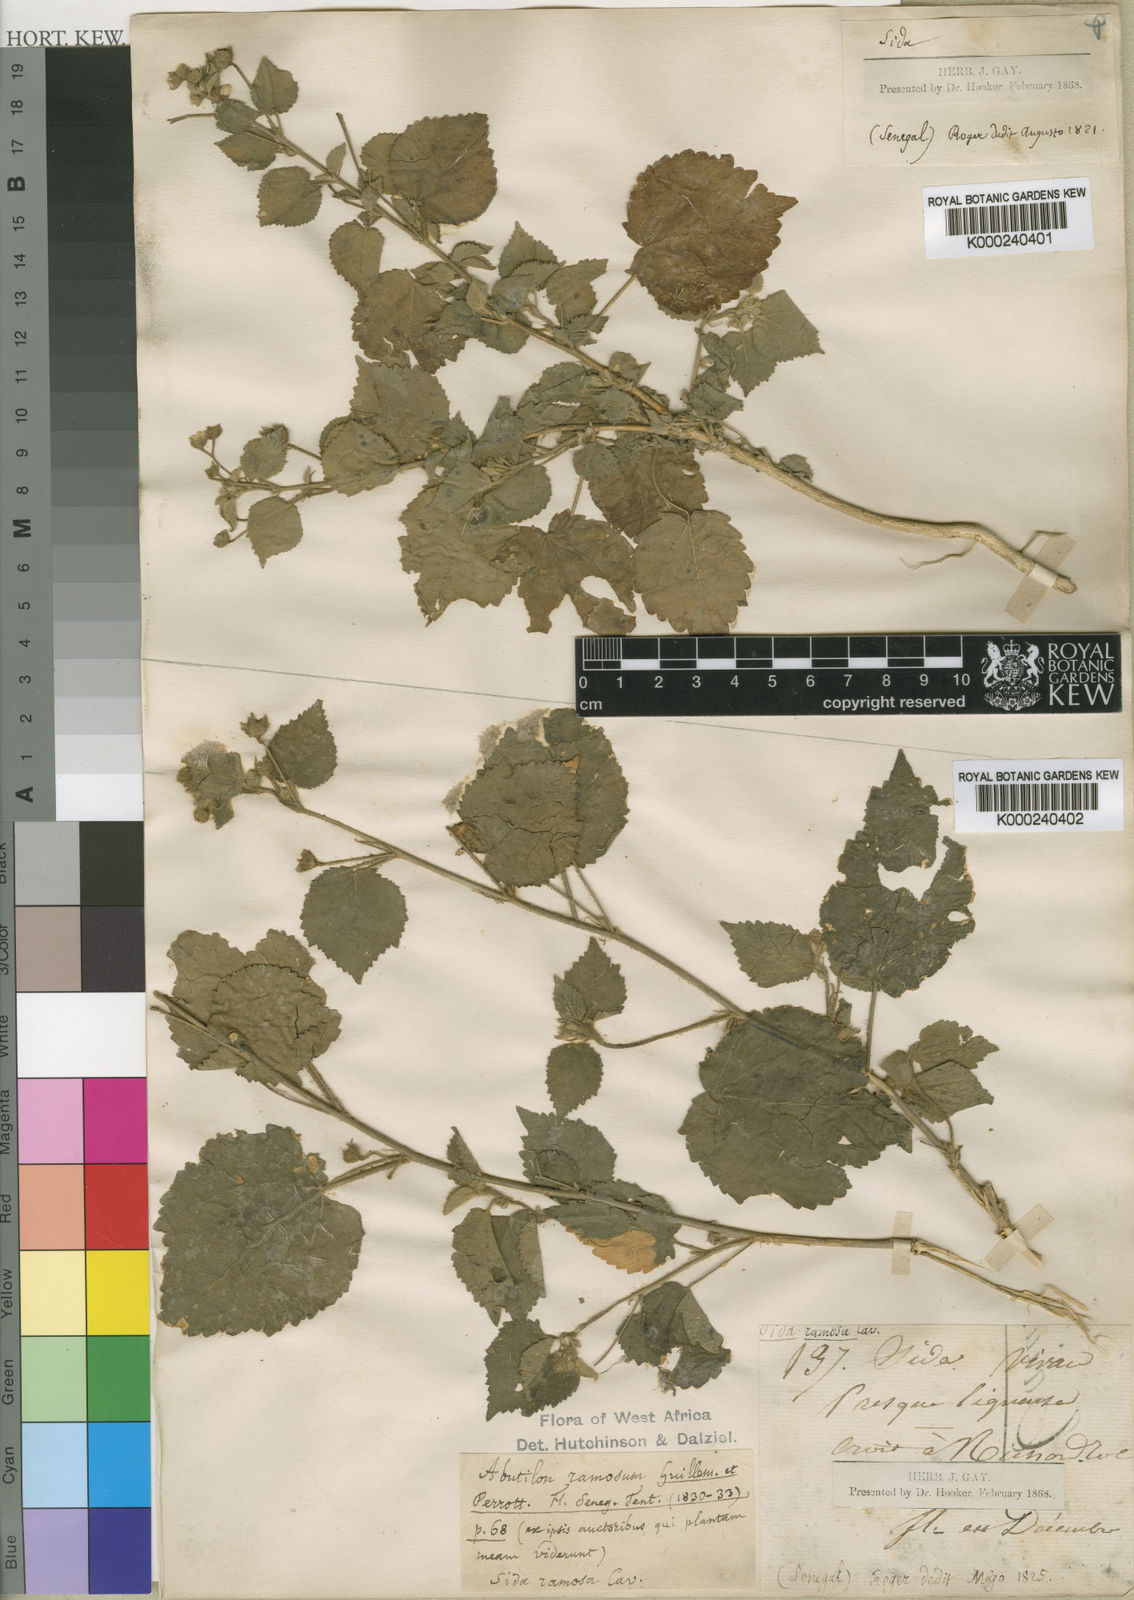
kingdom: Plantae
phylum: Tracheophyta
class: Magnoliopsida
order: Malvales
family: Malvaceae
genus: Abutilon
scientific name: Abutilon ramosum
